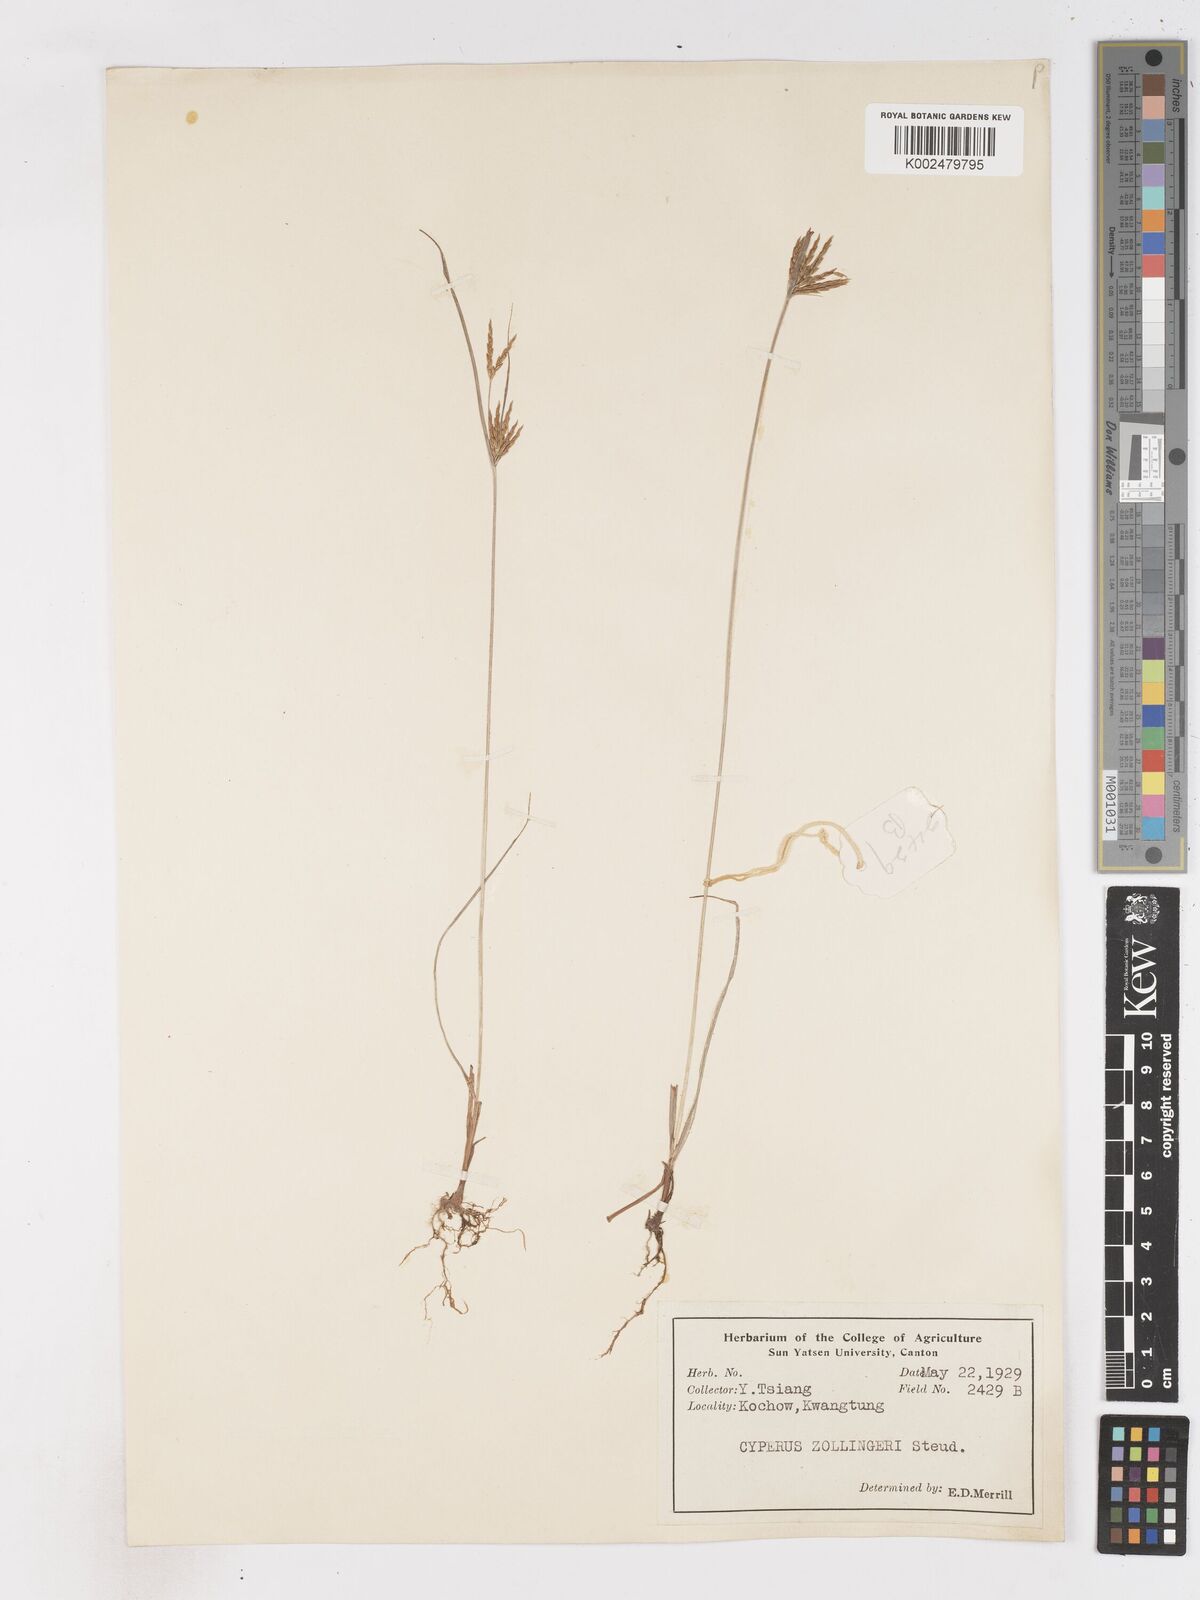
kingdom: Plantae
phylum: Tracheophyta
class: Liliopsida
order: Poales
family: Cyperaceae
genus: Cyperus
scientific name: Cyperus tenuiculmis
